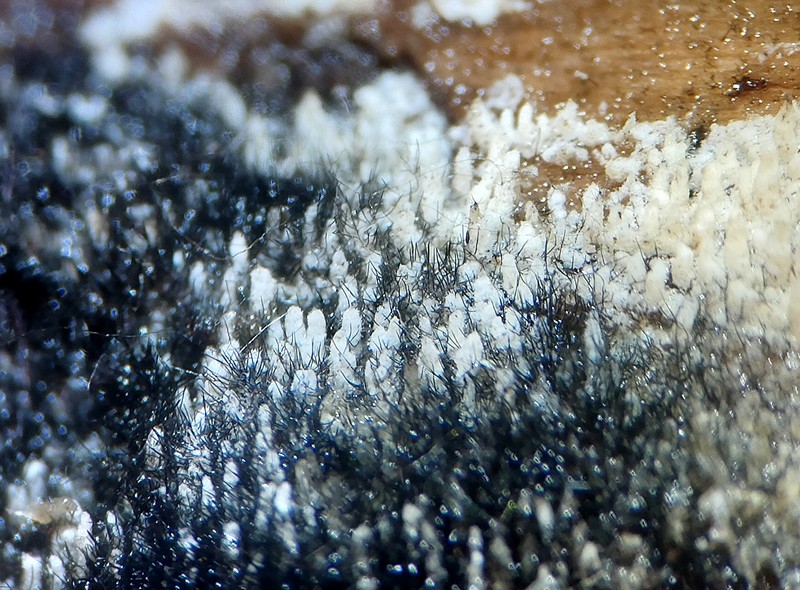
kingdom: Fungi
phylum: Ascomycota
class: Sordariomycetes
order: Coronophorales
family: Chaetosphaerellaceae
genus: Chaetosphaerella
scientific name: Chaetosphaerella phaeostroma
